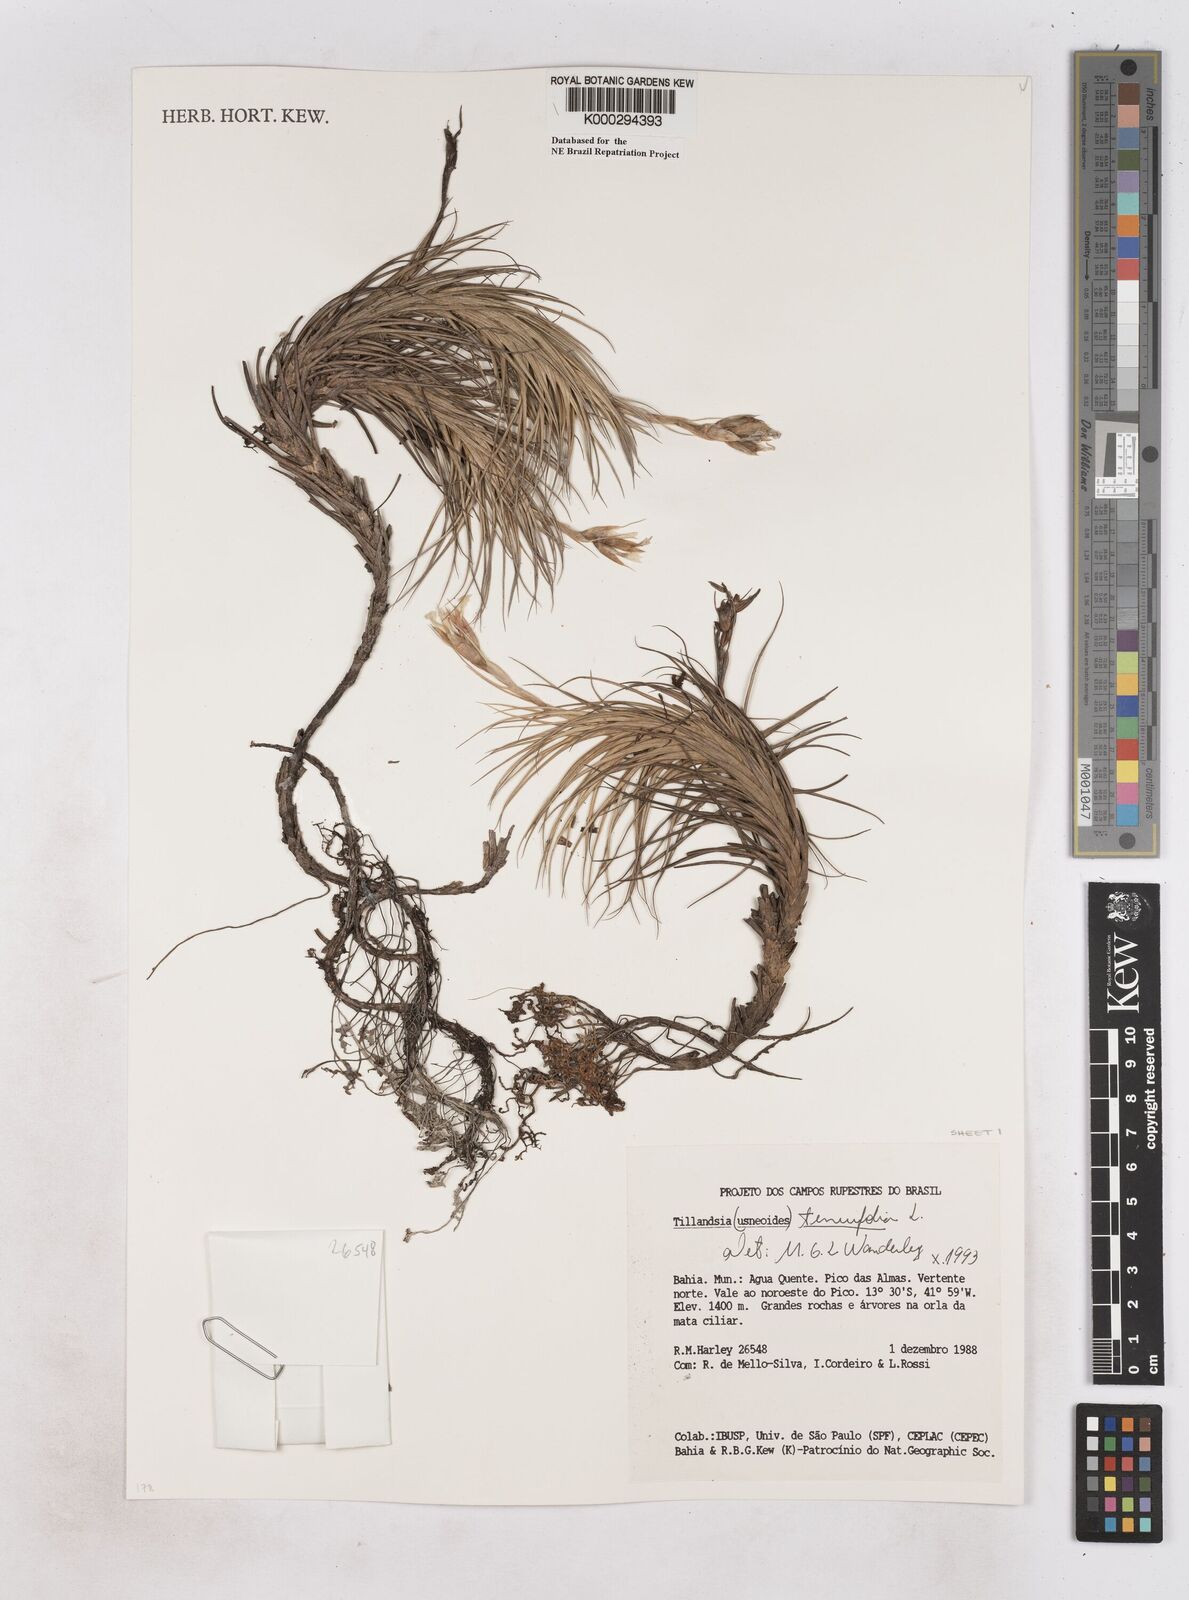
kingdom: Plantae
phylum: Tracheophyta
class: Liliopsida
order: Poales
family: Bromeliaceae
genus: Tillandsia
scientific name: Tillandsia tenuifolia
